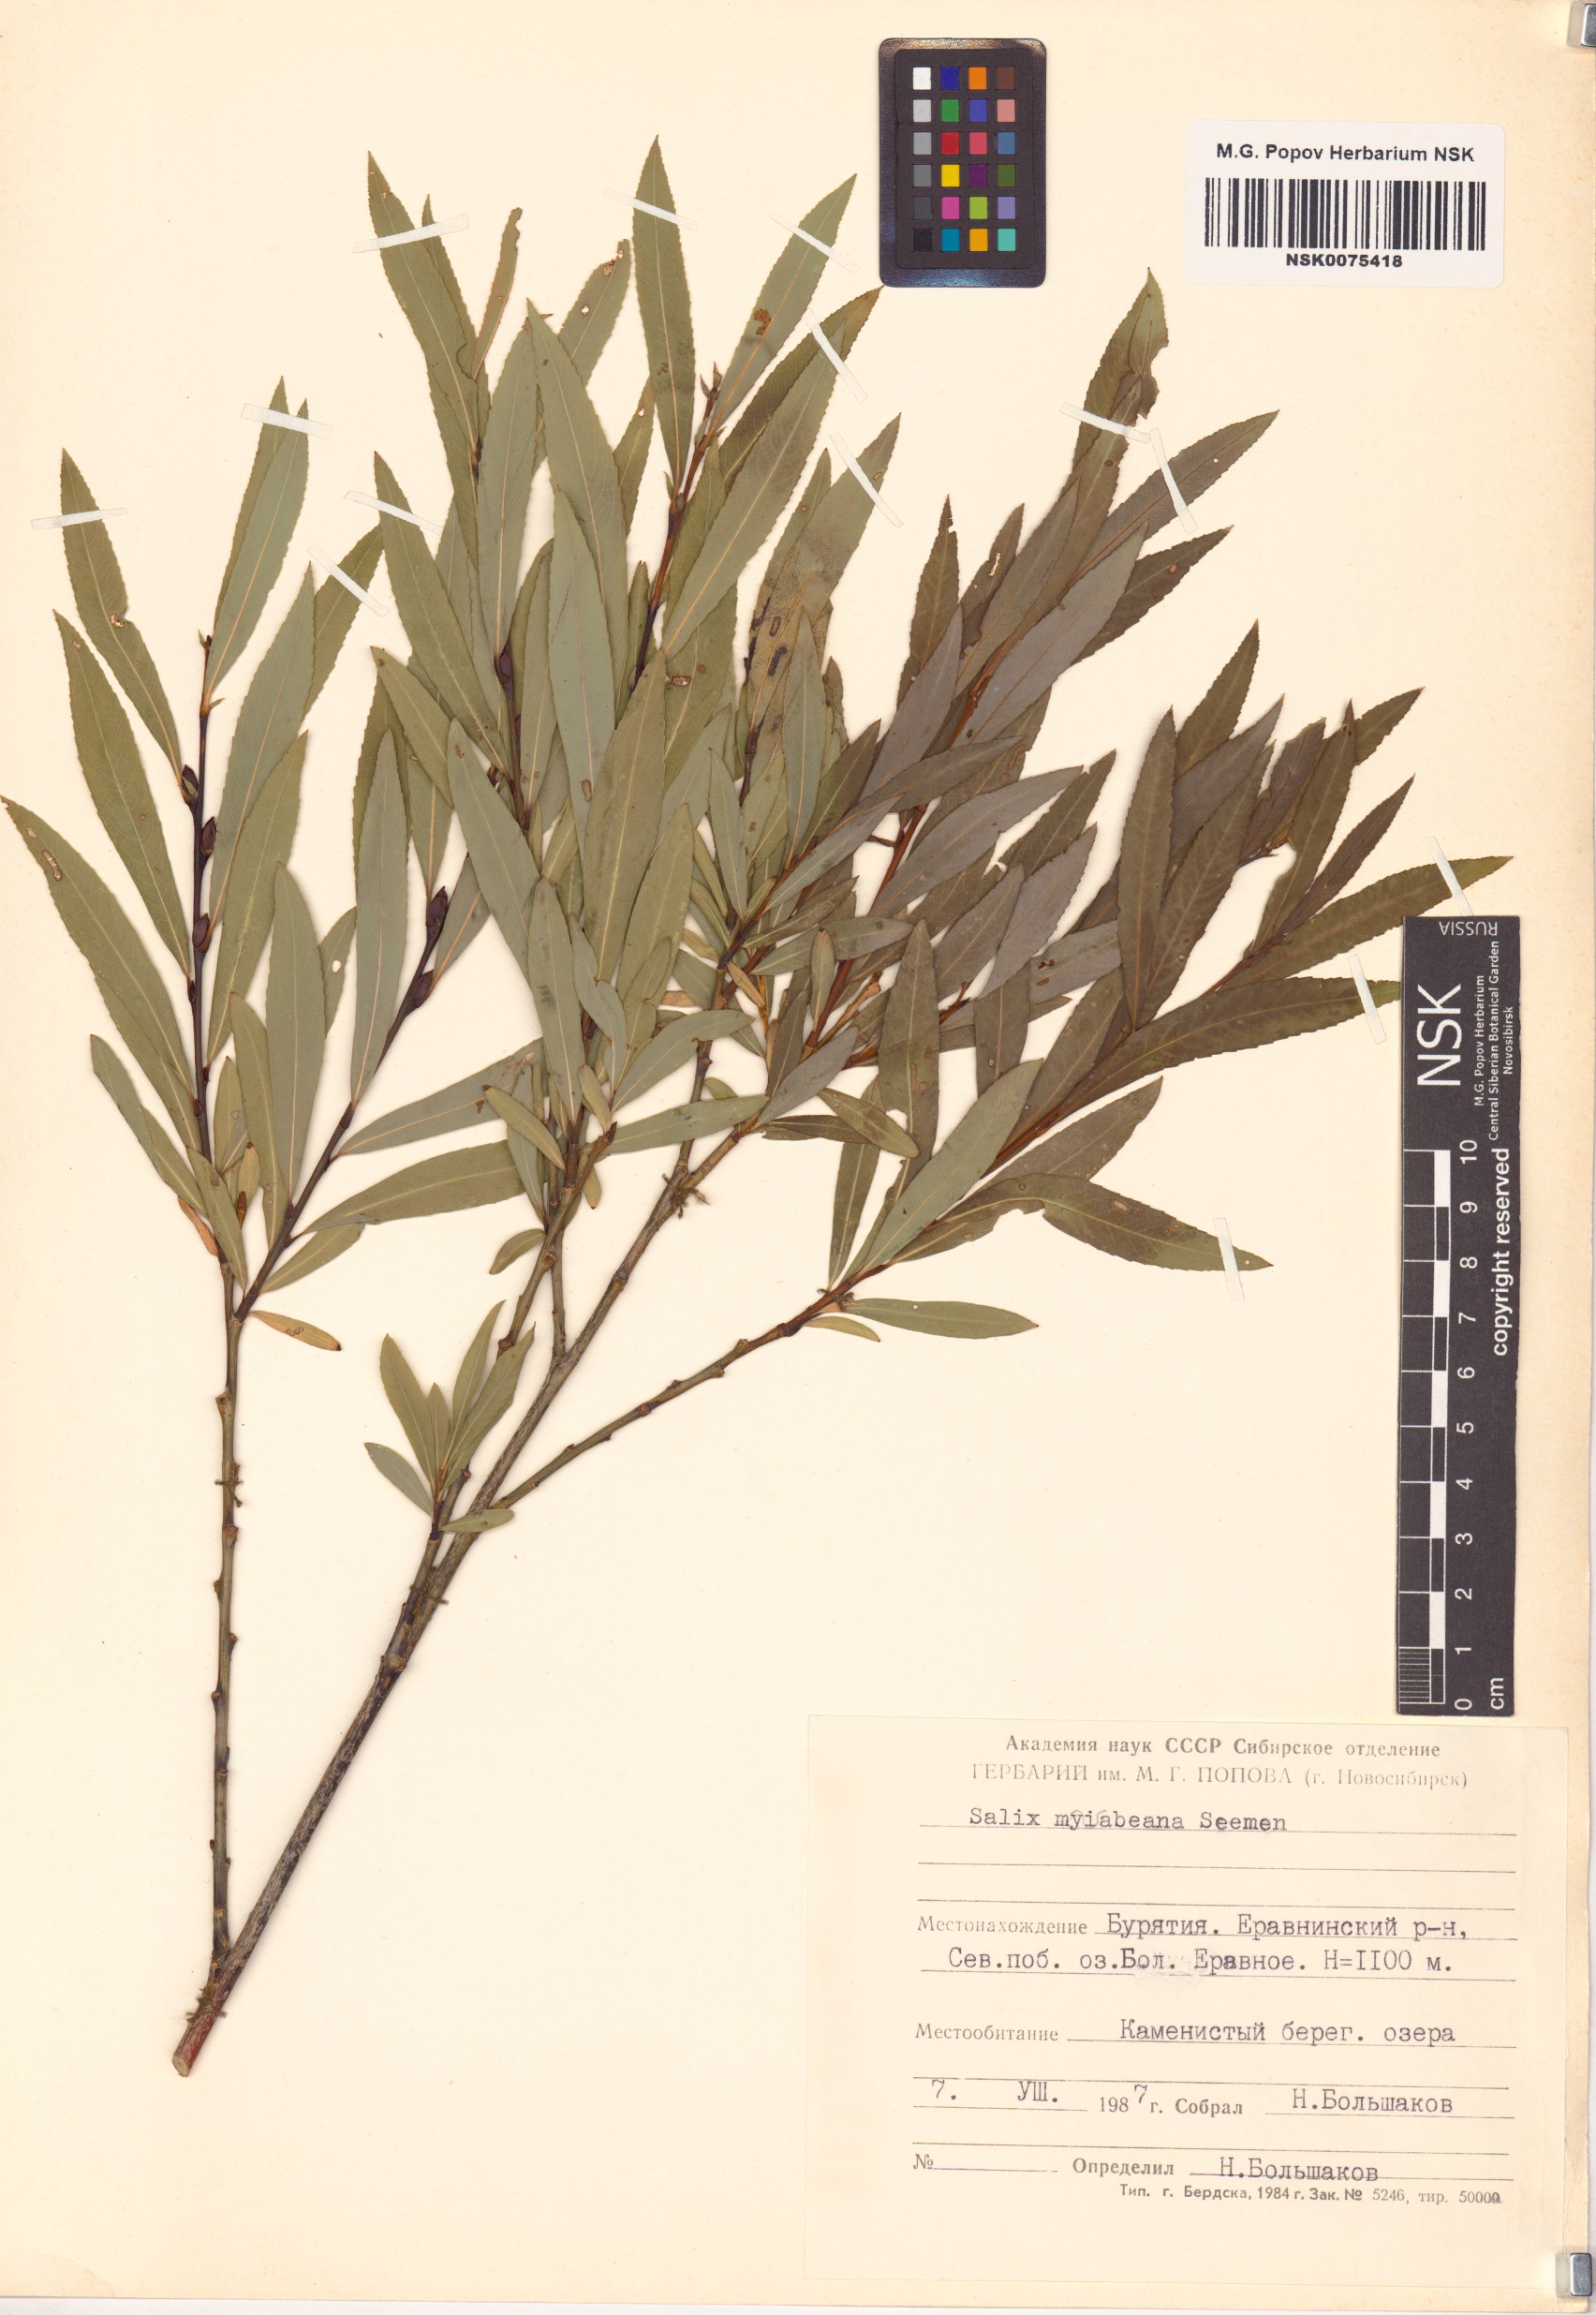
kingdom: Plantae
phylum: Tracheophyta
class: Magnoliopsida
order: Malpighiales
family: Salicaceae
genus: Salix
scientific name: Salix miyabeana
